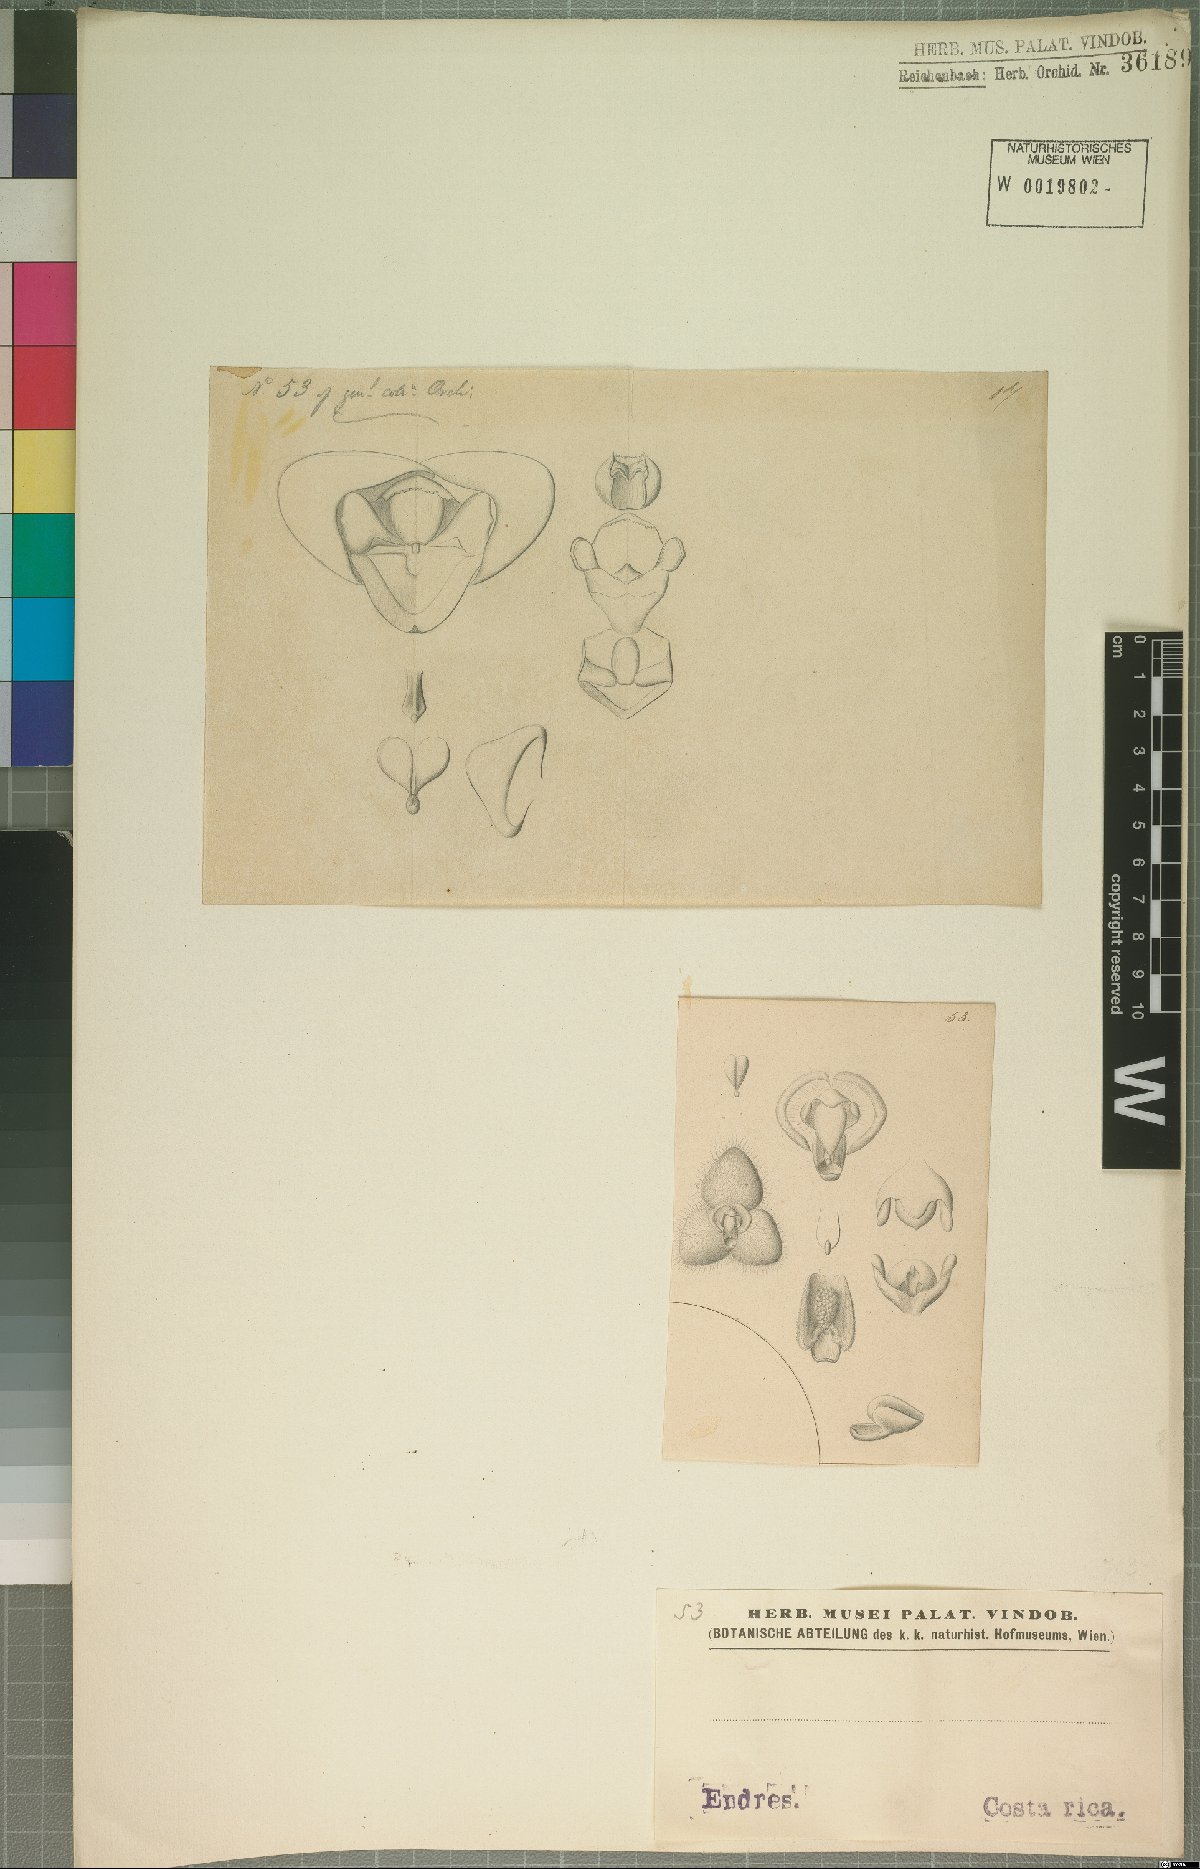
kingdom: Plantae
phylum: Tracheophyta
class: Liliopsida
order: Asparagales
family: Orchidaceae
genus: Stelis
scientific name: Stelis
